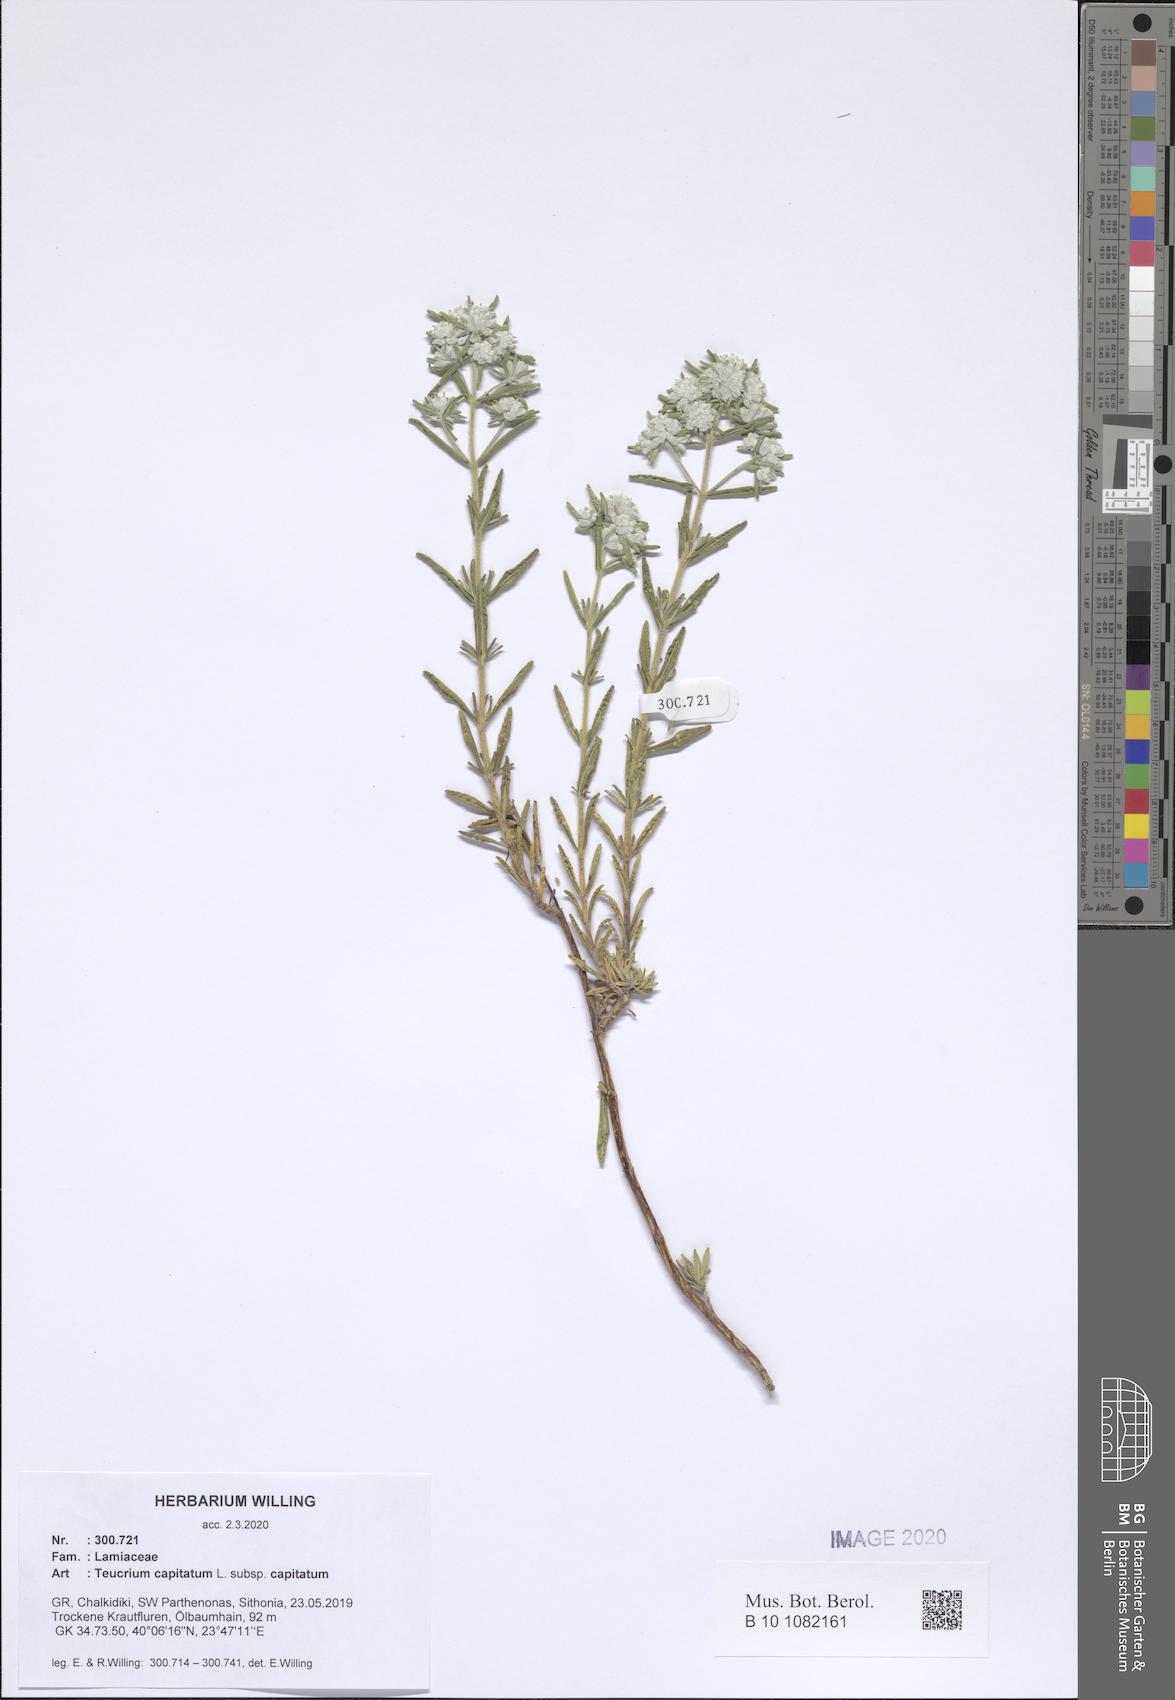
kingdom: Plantae
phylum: Tracheophyta
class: Magnoliopsida
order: Lamiales
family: Lamiaceae
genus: Teucrium
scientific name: Teucrium capitatum
